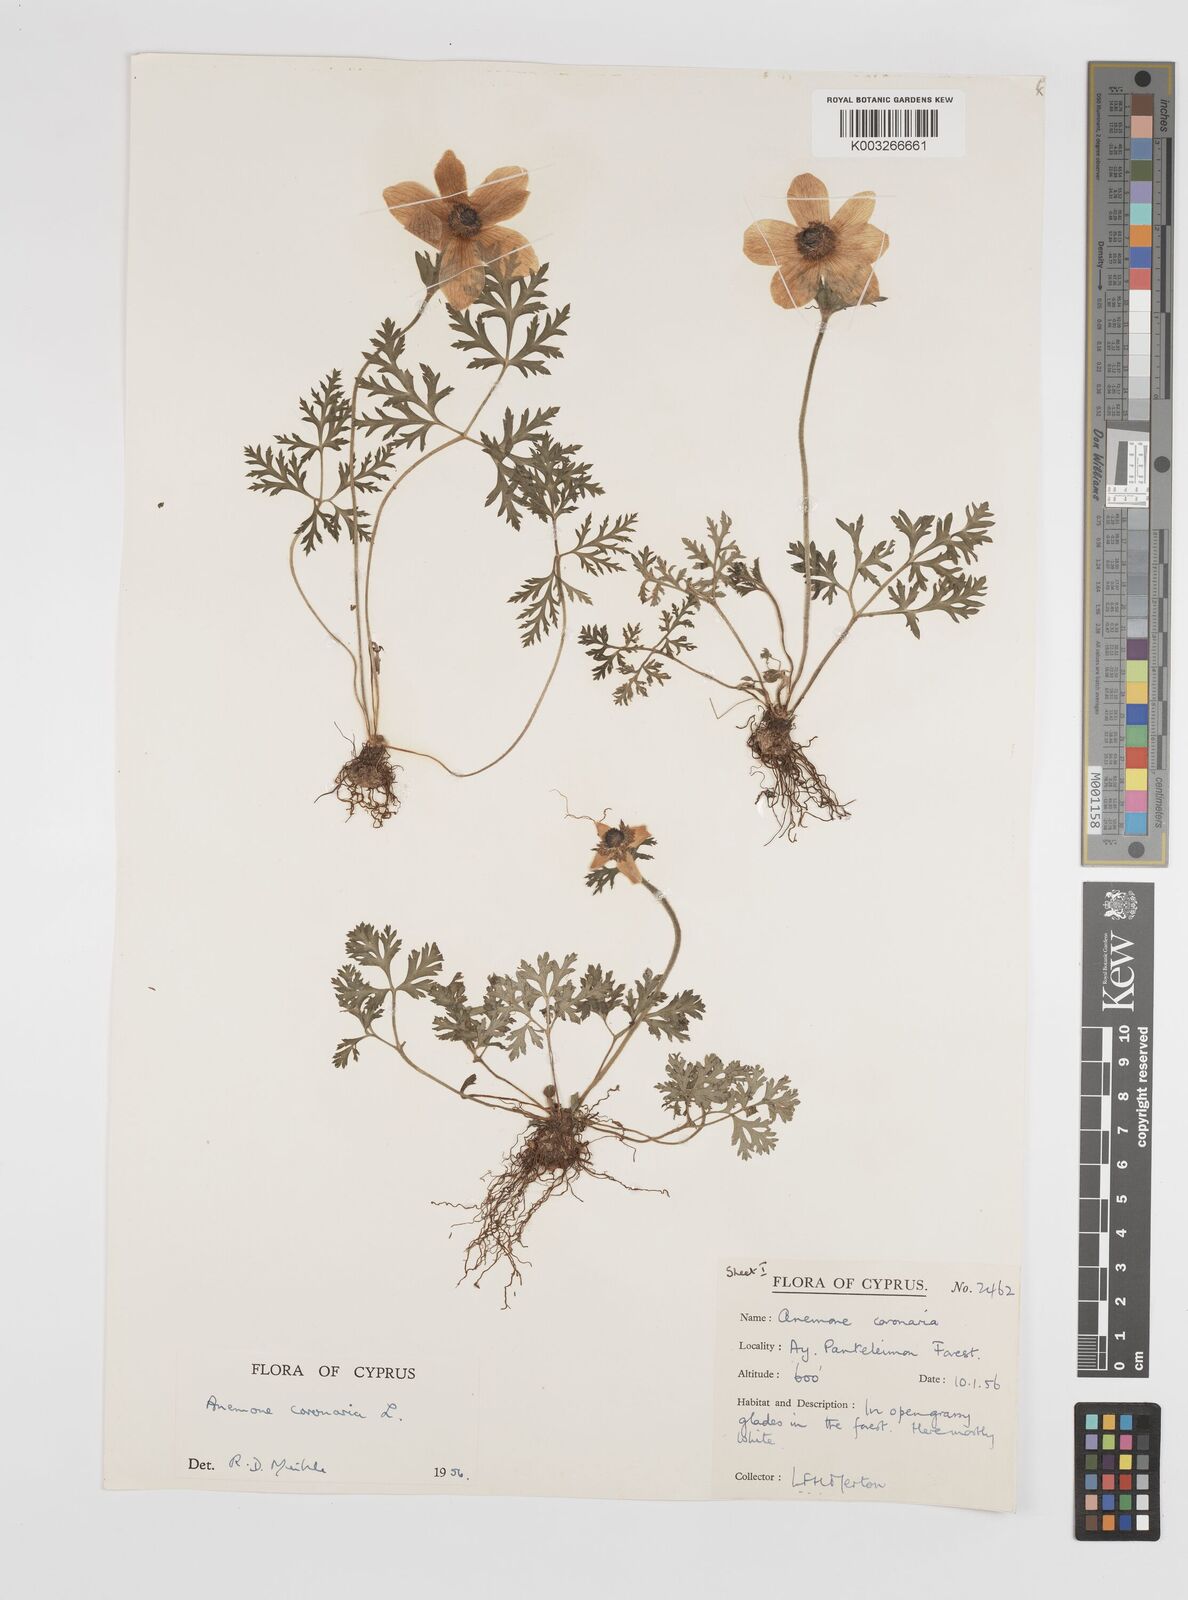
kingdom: Plantae
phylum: Tracheophyta
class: Magnoliopsida
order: Ranunculales
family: Ranunculaceae
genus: Anemone
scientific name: Anemone coronaria
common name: Poppy anemone
